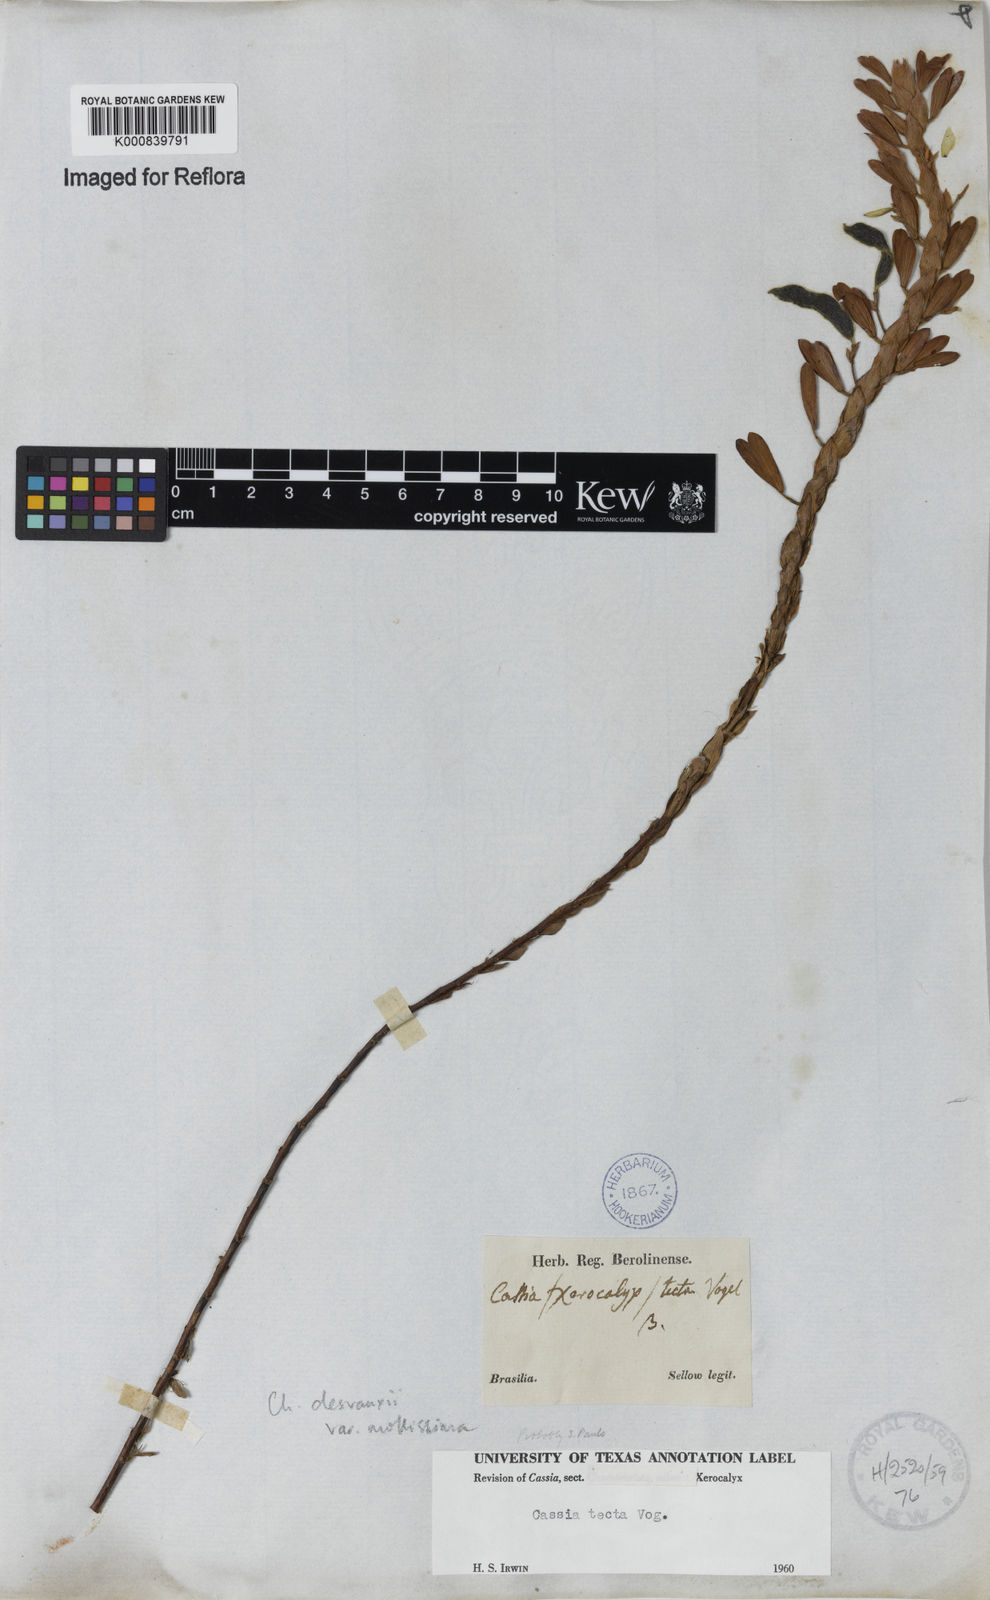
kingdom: Plantae
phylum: Tracheophyta
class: Magnoliopsida
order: Fabales
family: Fabaceae
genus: Chamaecrista
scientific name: Chamaecrista desvauxii
